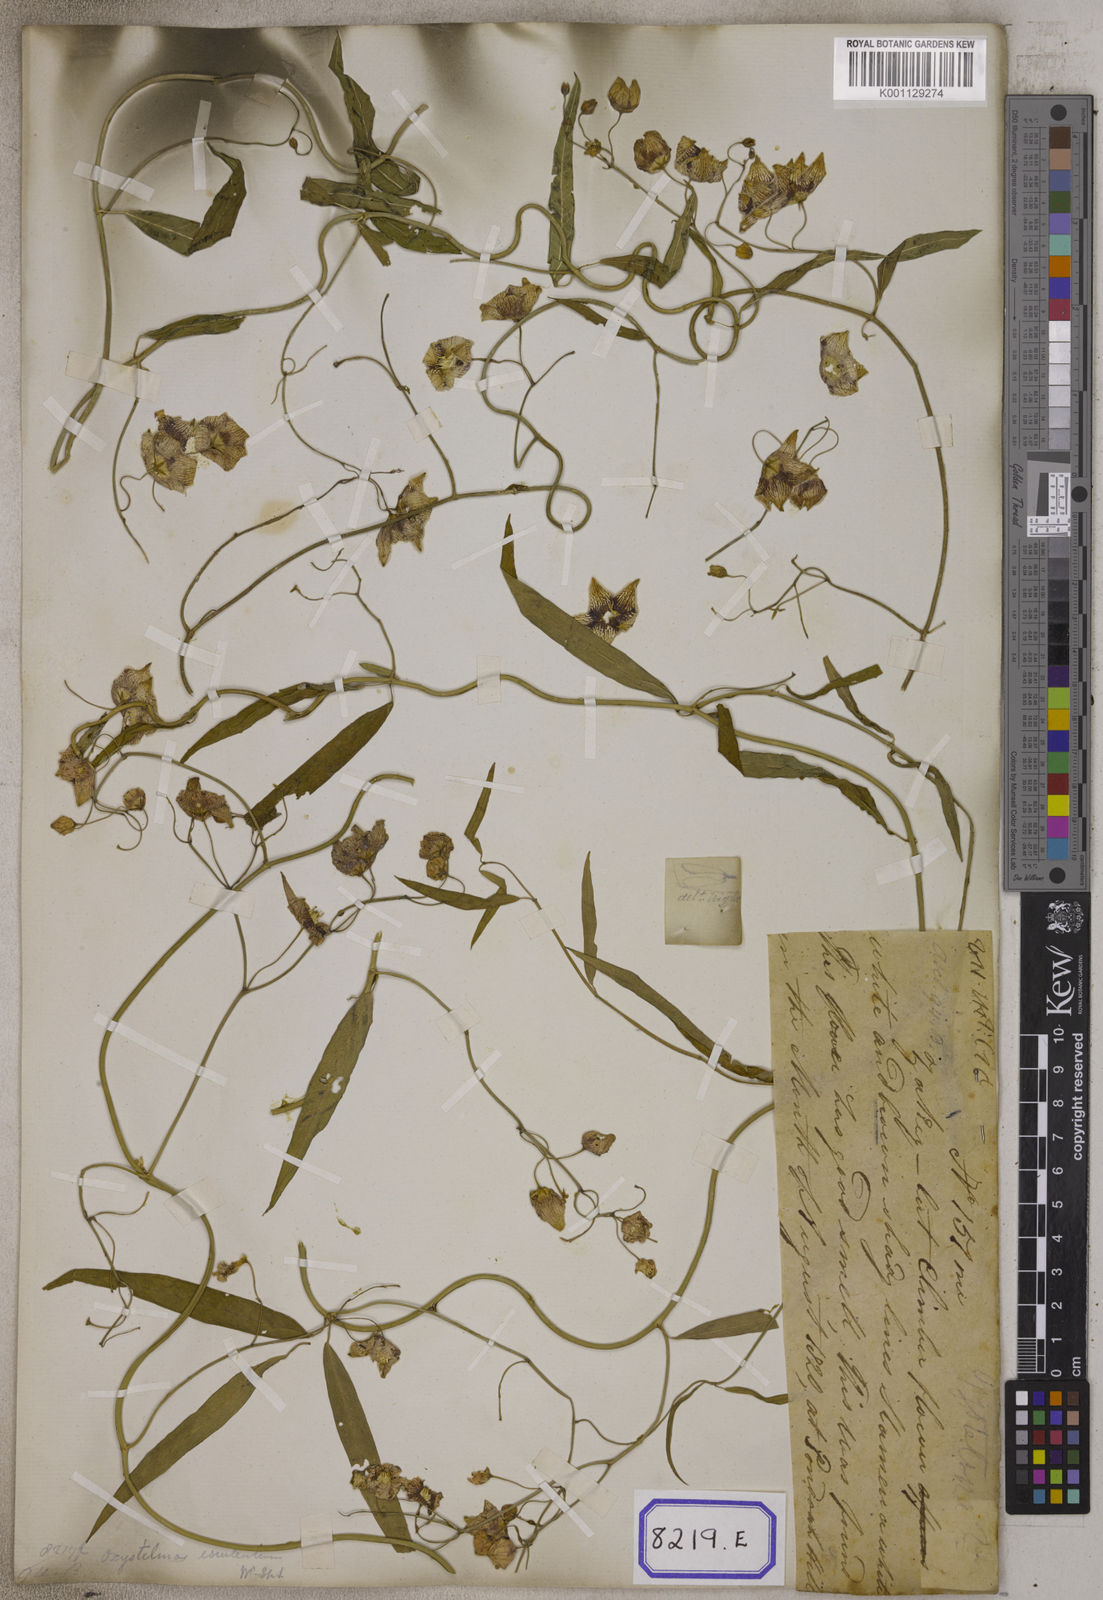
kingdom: Plantae
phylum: Tracheophyta
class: Magnoliopsida
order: Gentianales
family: Apocynaceae
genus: Oxystelma
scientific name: Oxystelma
